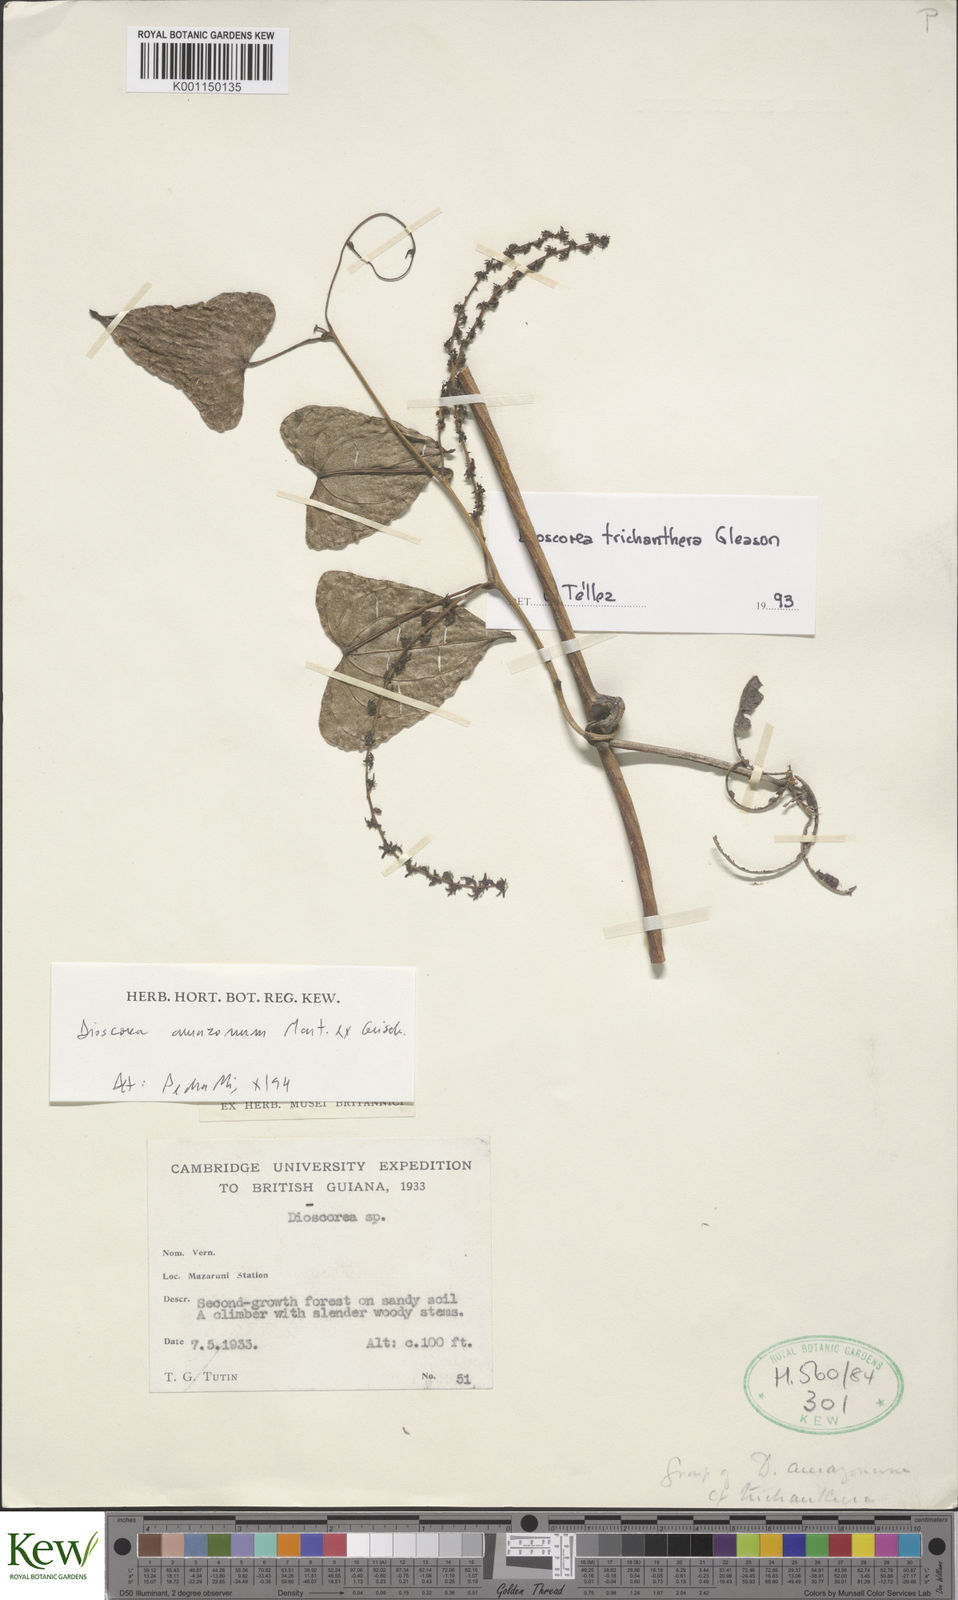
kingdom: Plantae
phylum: Tracheophyta
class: Liliopsida
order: Dioscoreales
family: Dioscoreaceae
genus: Dioscorea
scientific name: Dioscorea trichanthera
